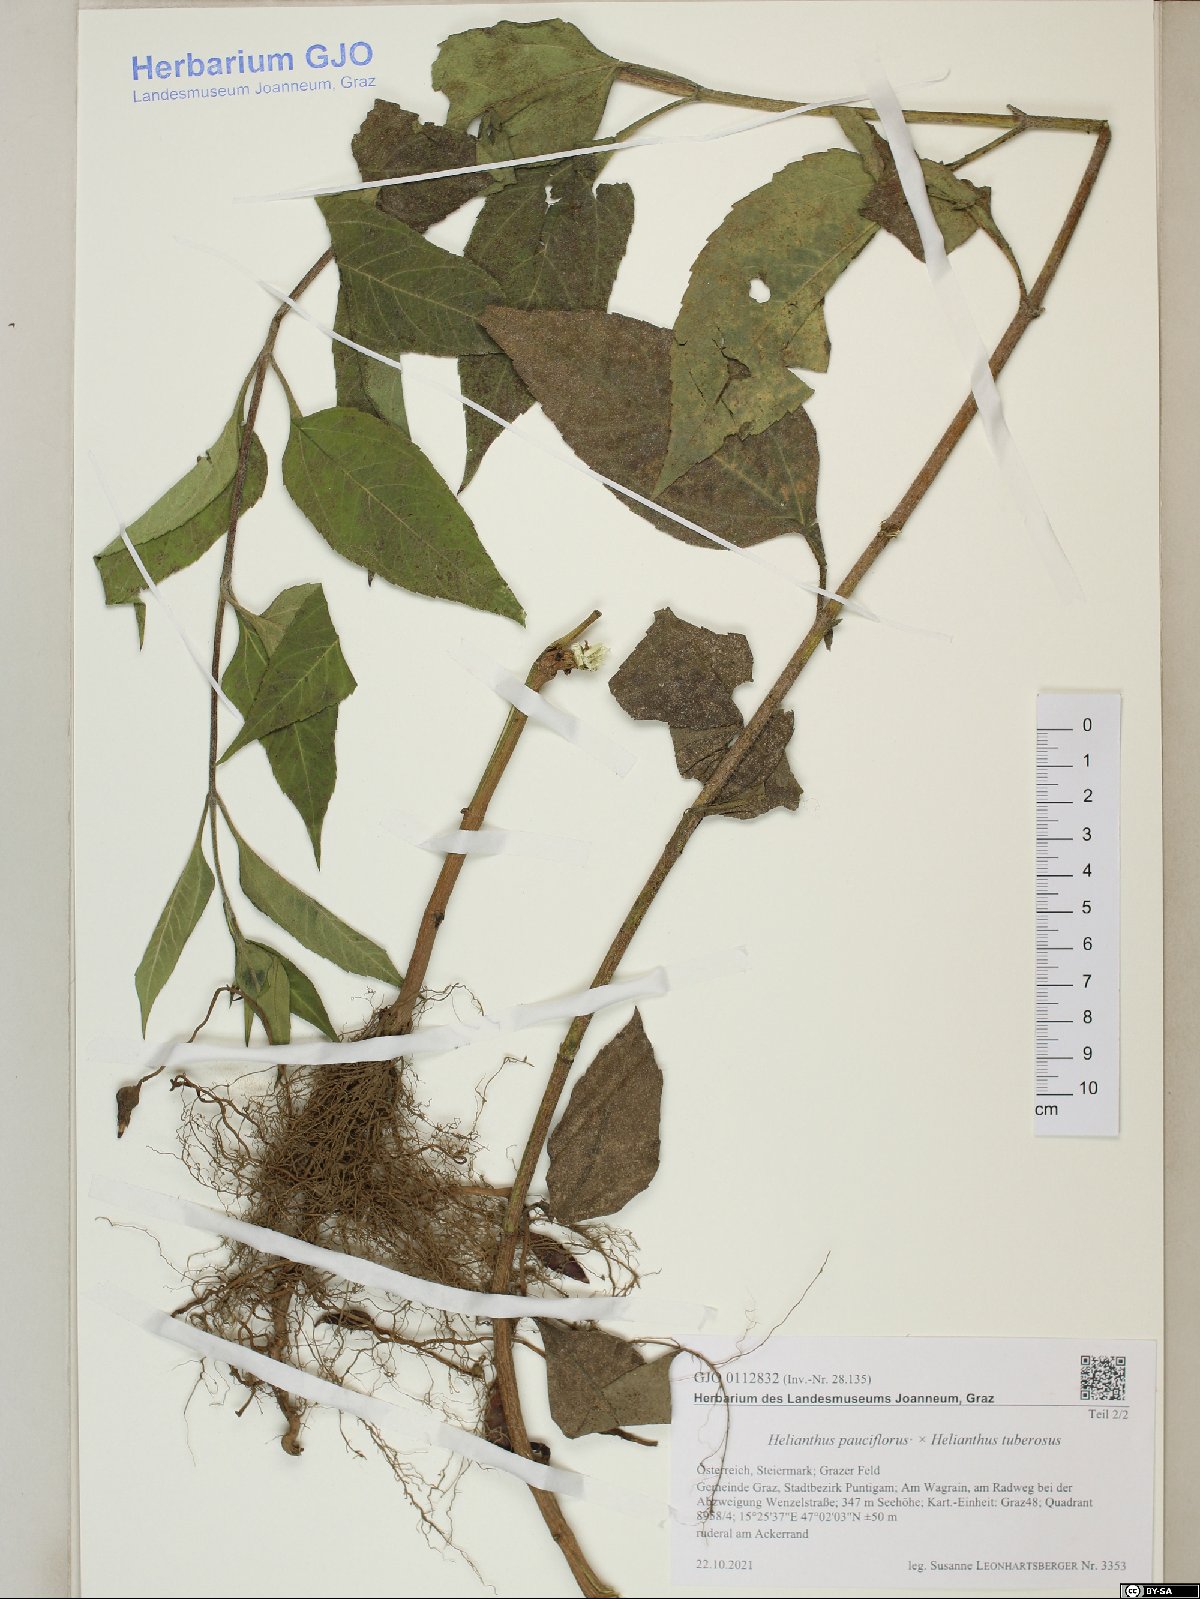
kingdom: Plantae
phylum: Tracheophyta
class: Magnoliopsida
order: Asterales
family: Asteraceae
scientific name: Asteraceae
